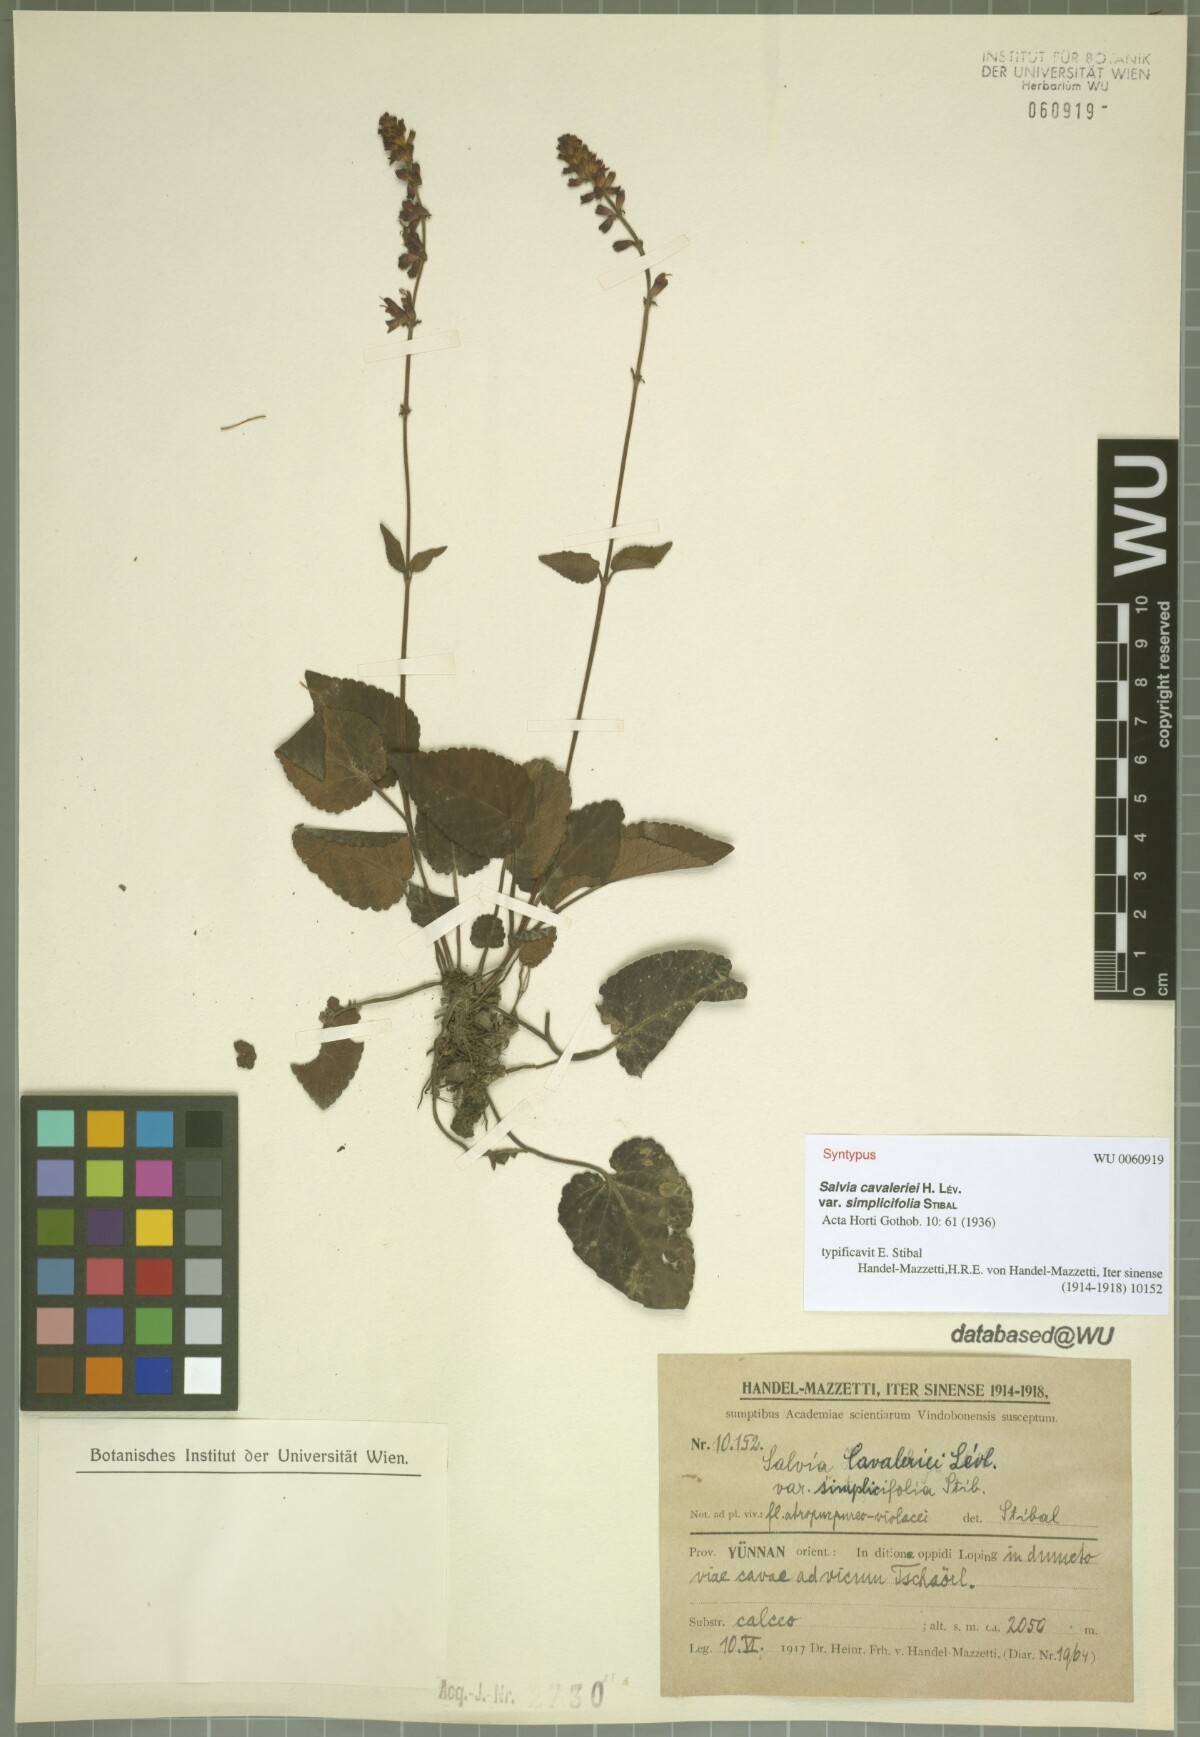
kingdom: Plantae
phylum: Tracheophyta
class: Magnoliopsida
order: Lamiales
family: Lamiaceae
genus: Salvia
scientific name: Salvia cavaleriei
